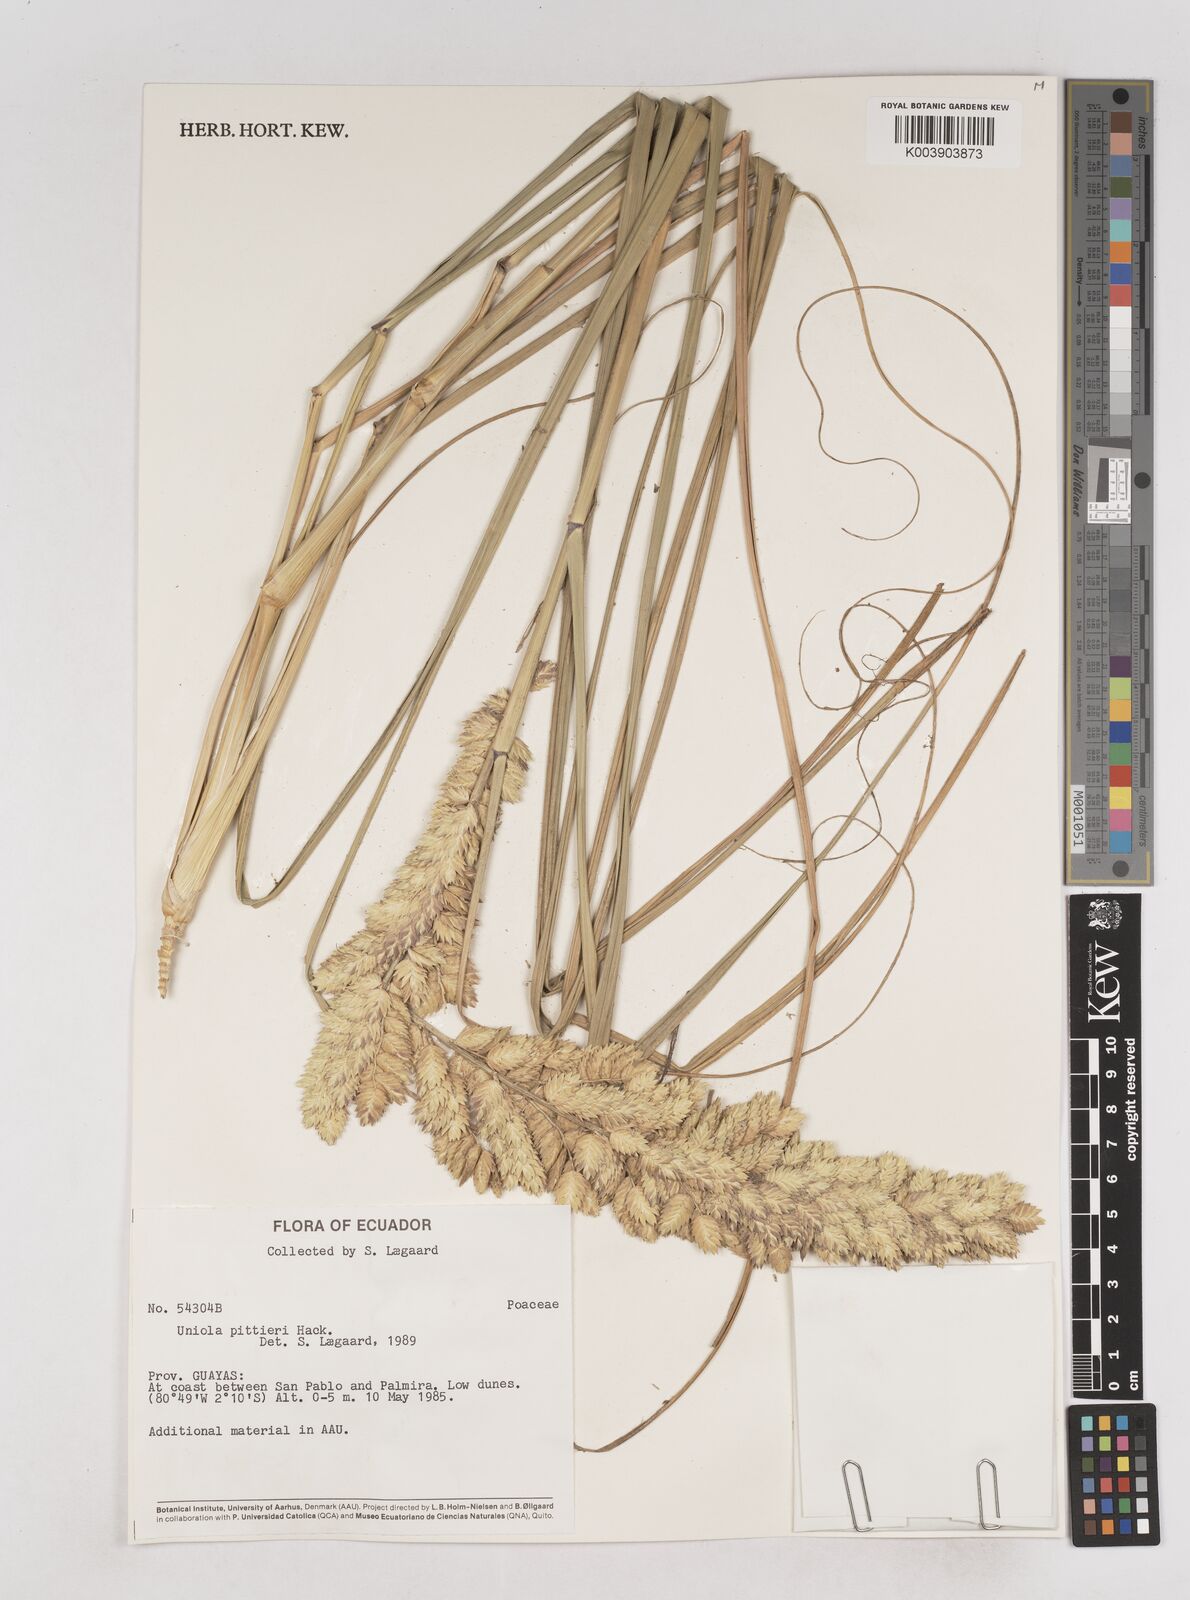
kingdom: Plantae
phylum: Tracheophyta
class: Liliopsida
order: Poales
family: Poaceae
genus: Uniola
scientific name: Uniola pittieri
